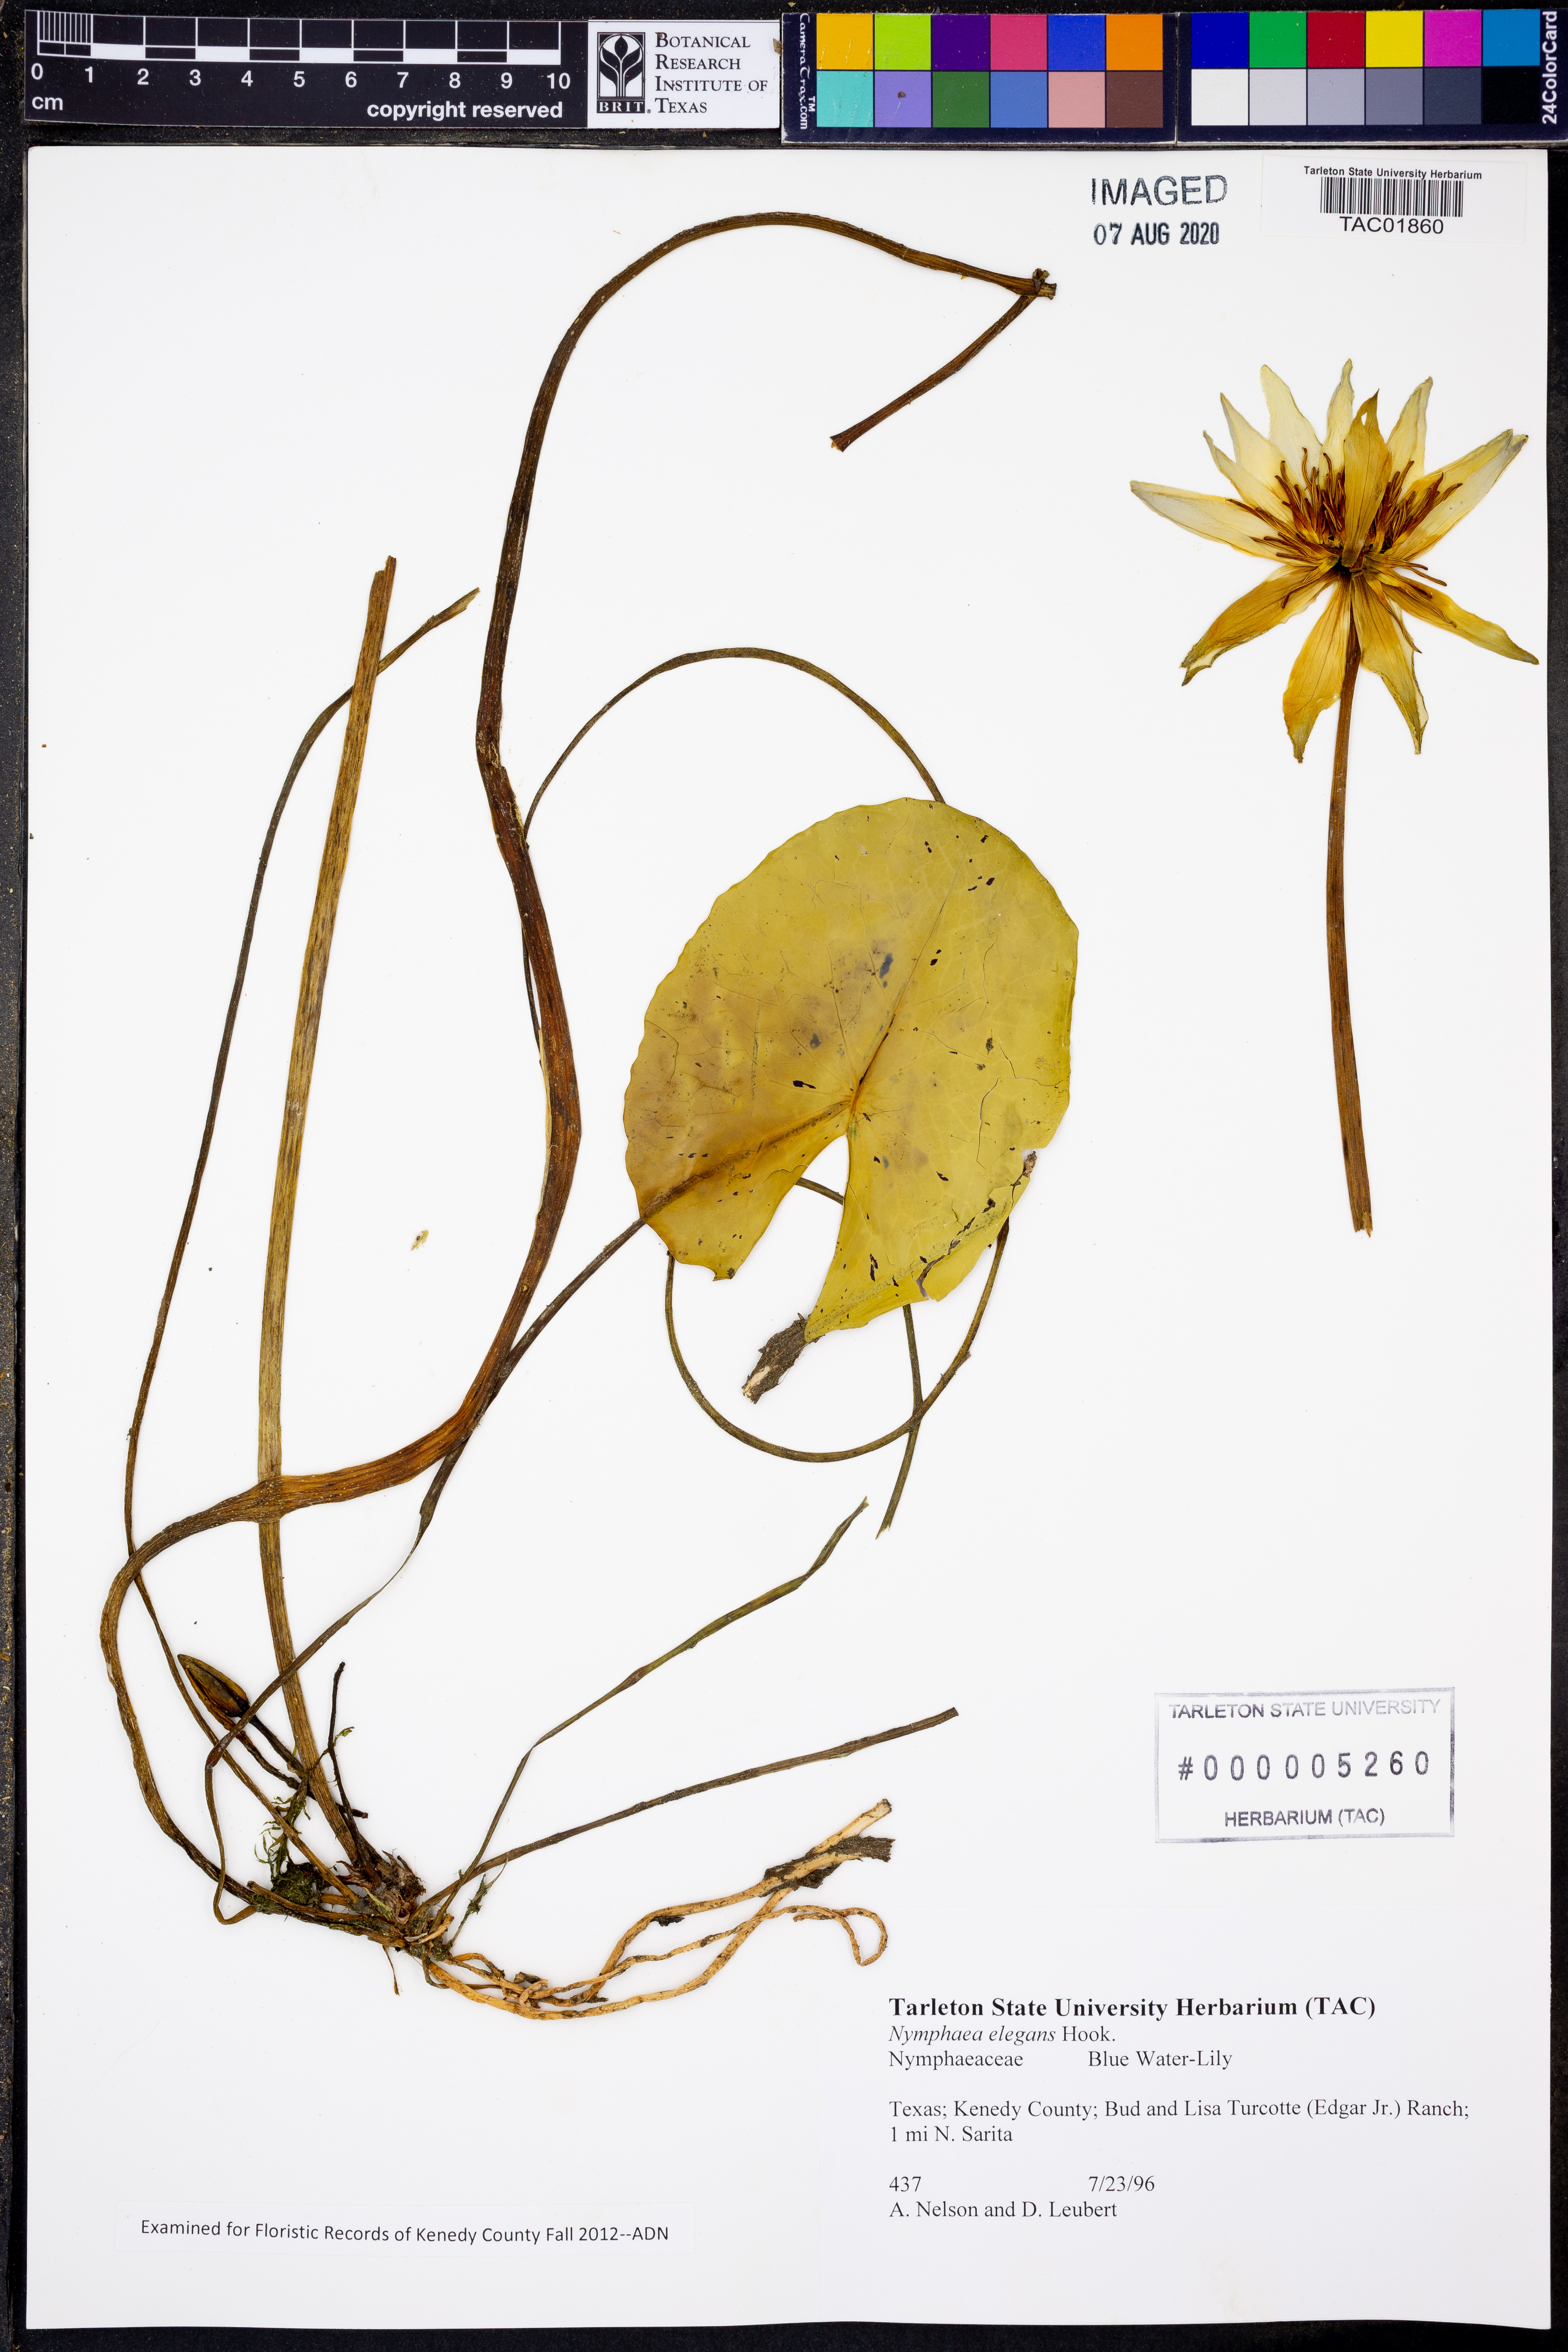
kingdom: Plantae
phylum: Tracheophyta
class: Magnoliopsida
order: Nymphaeales
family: Nymphaeaceae
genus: Nymphaea
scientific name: Nymphaea elegans
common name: Blue water-lily
